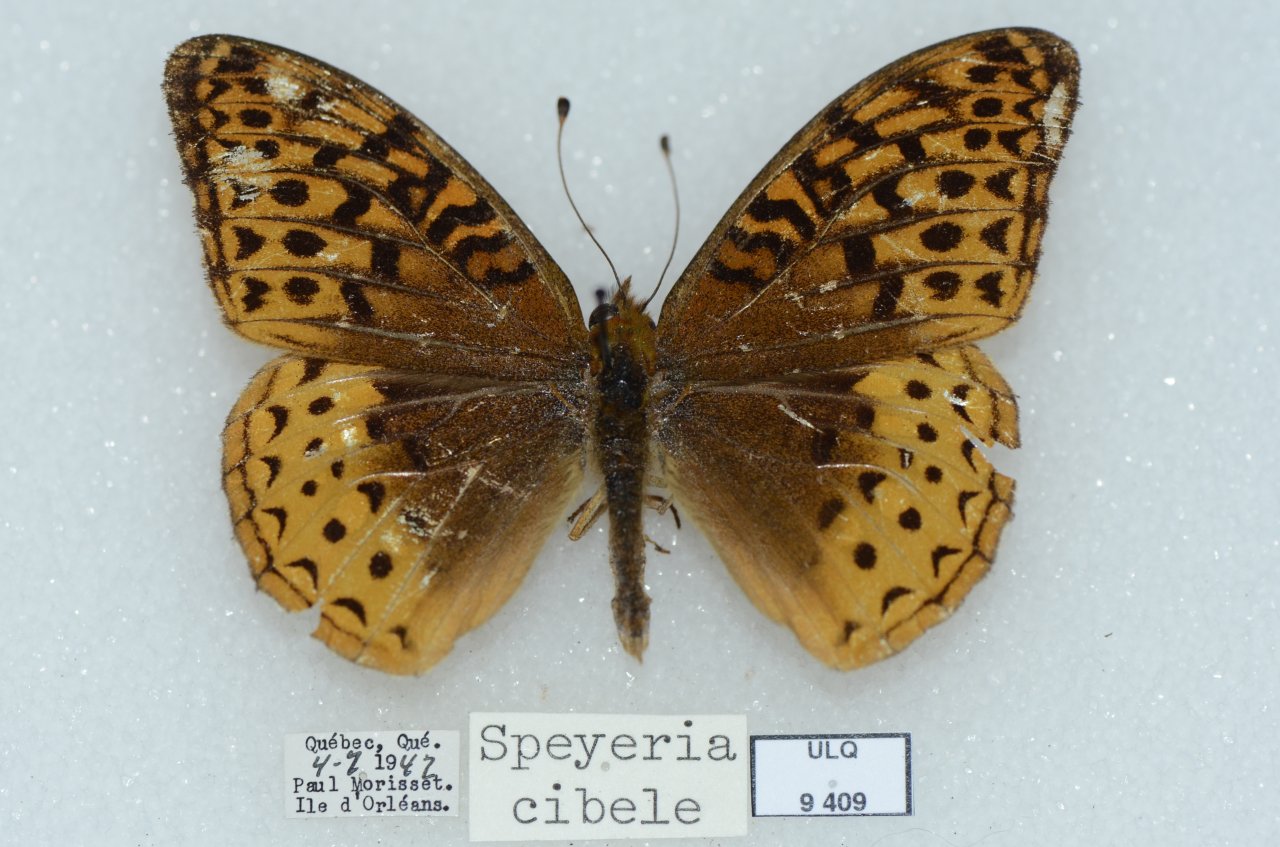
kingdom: Animalia
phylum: Arthropoda
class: Insecta
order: Lepidoptera
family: Nymphalidae
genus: Speyeria
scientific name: Speyeria cybele
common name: Great Spangled Fritillary
